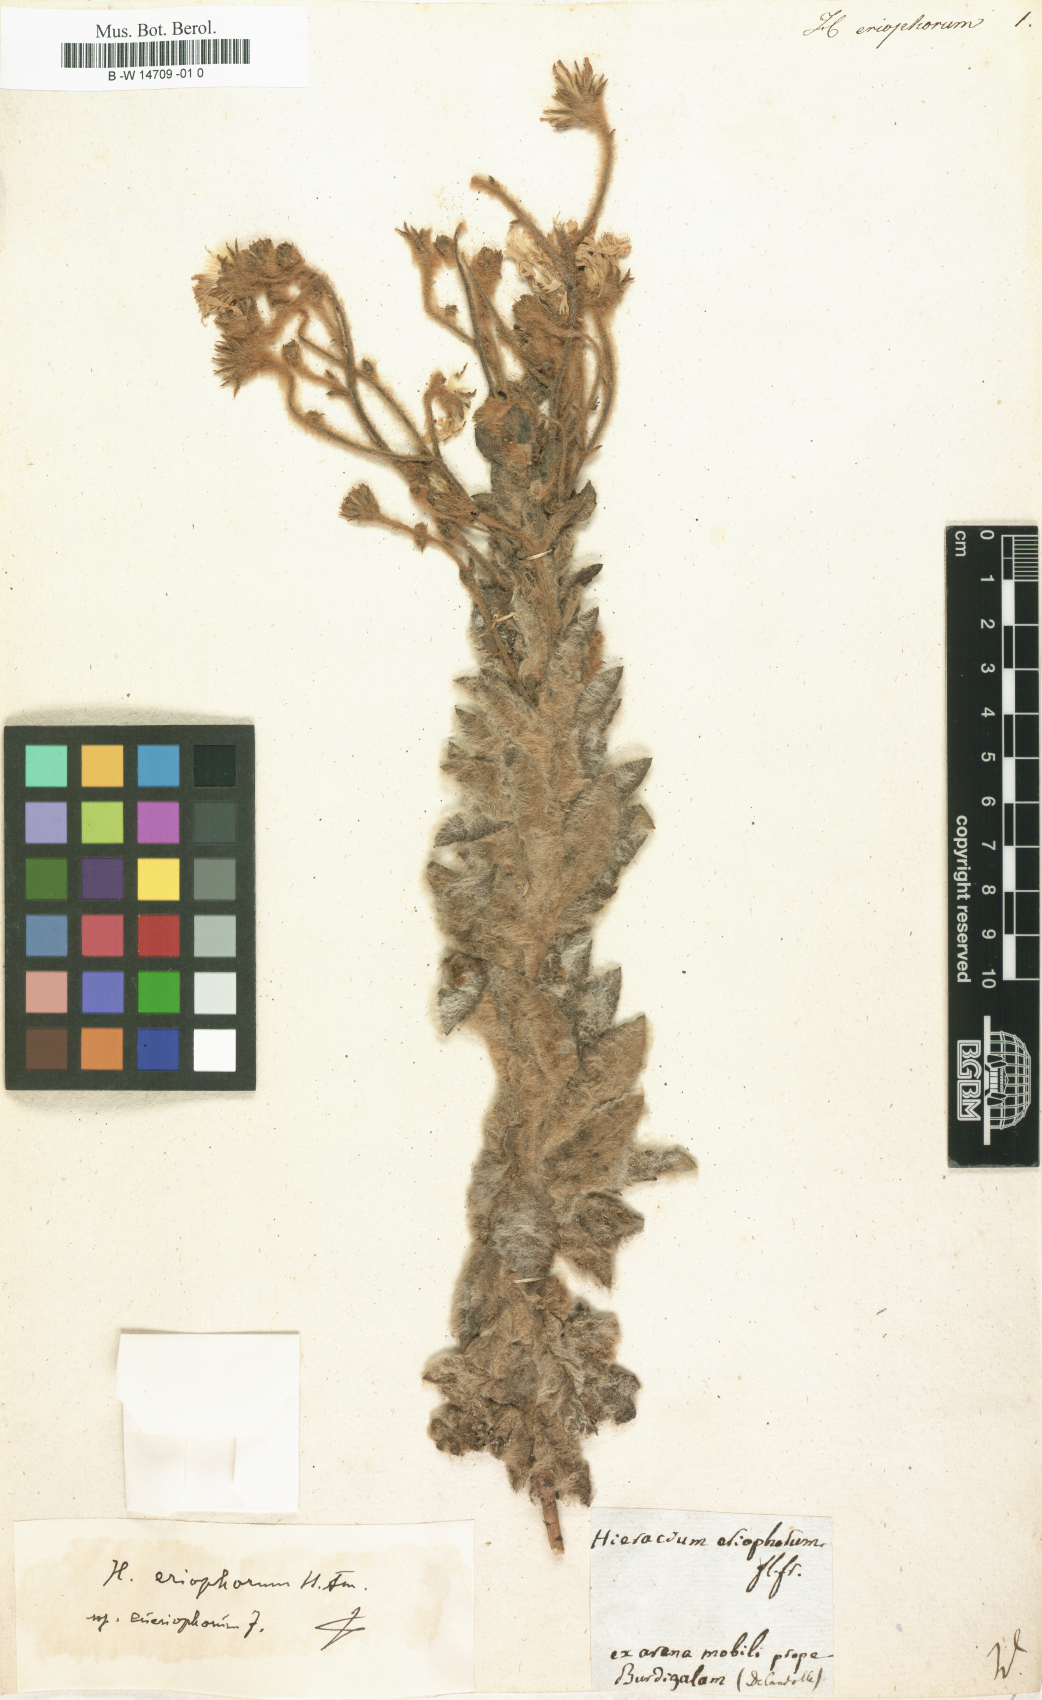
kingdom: Plantae
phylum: Tracheophyta
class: Magnoliopsida
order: Asterales
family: Asteraceae
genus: Hieracium
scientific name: Hieracium eriophorum
